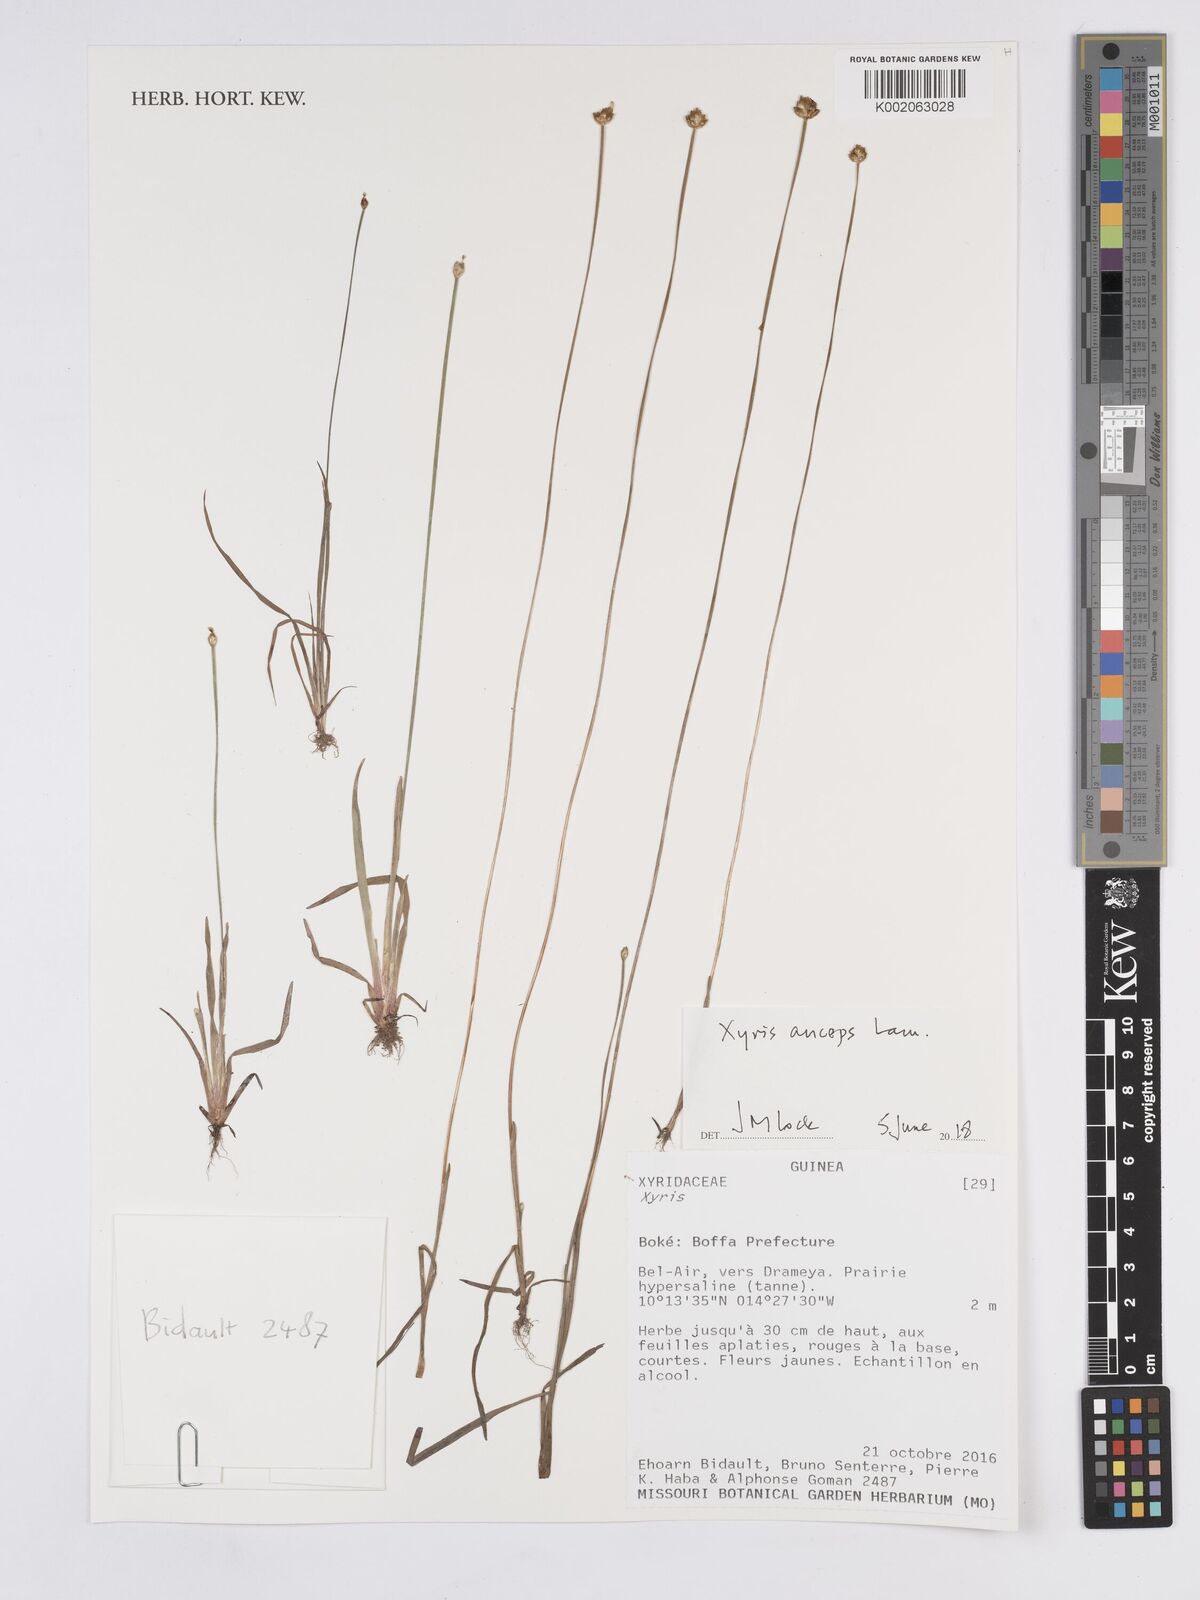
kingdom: Plantae
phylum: Tracheophyta
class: Liliopsida
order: Poales
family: Xyridaceae
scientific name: Xyridaceae
